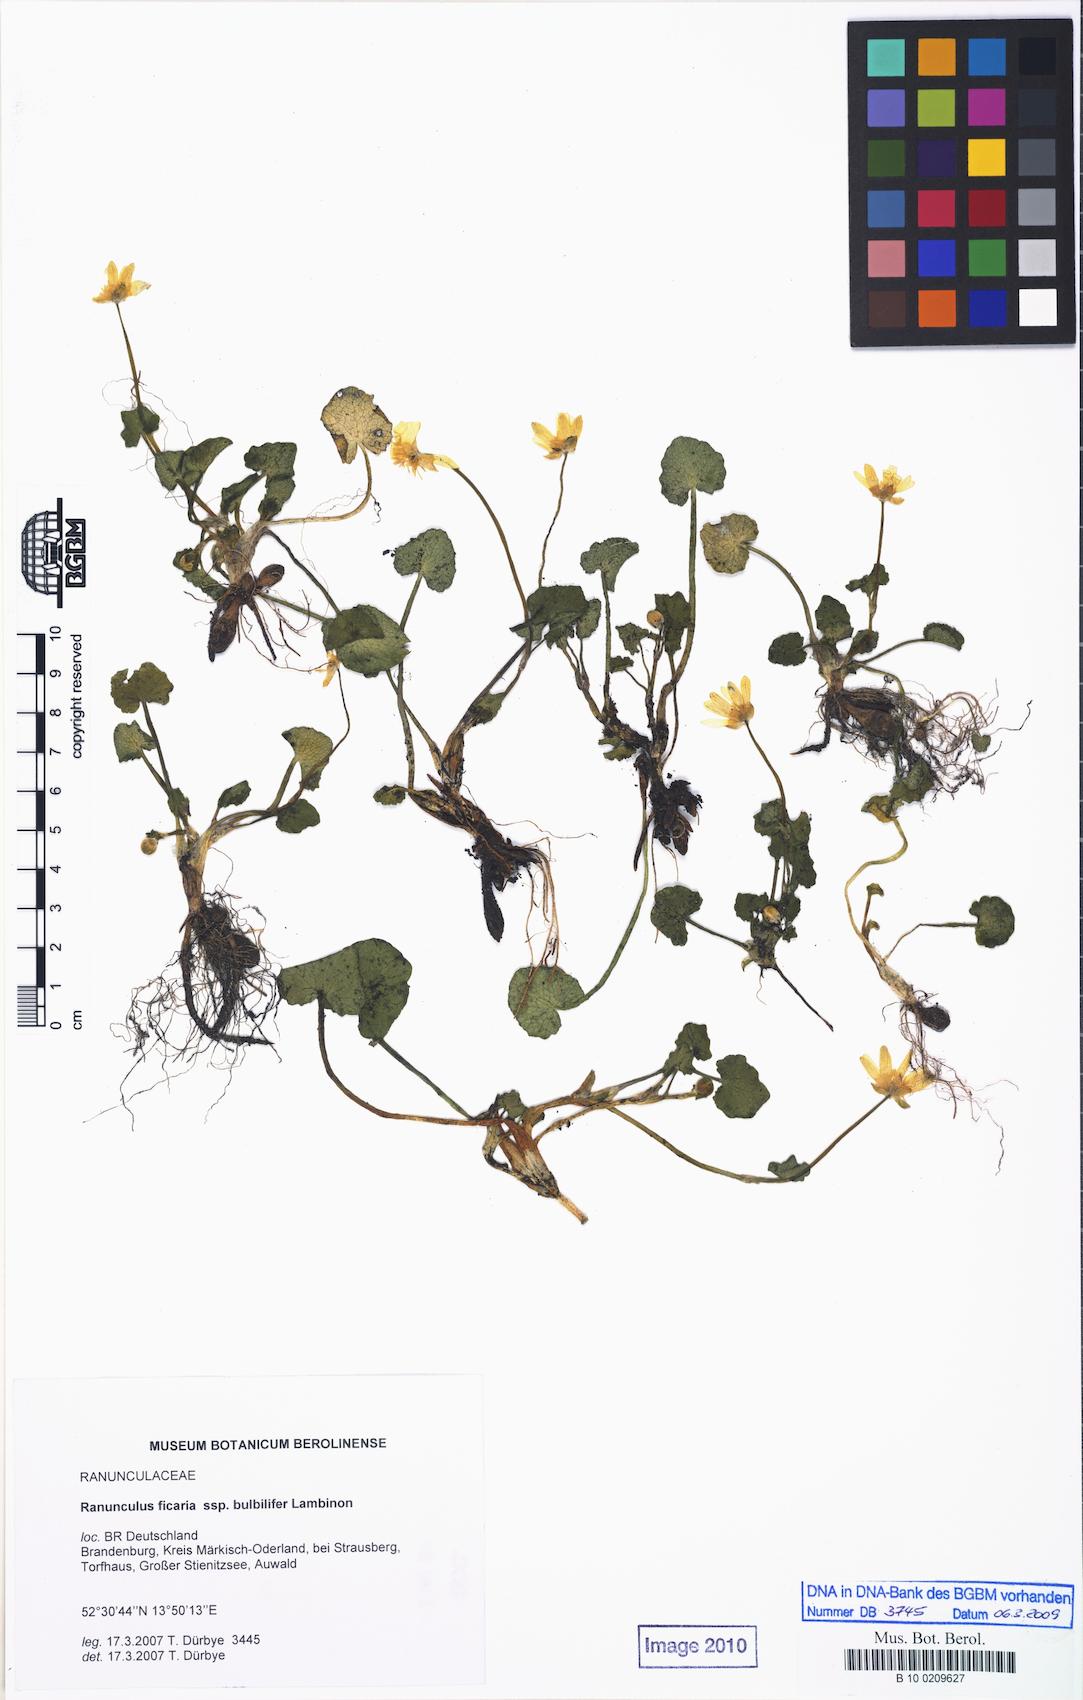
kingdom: Plantae
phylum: Tracheophyta
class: Magnoliopsida
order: Ranunculales
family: Ranunculaceae
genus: Ficaria
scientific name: Ficaria verna
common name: Lesser celandine
